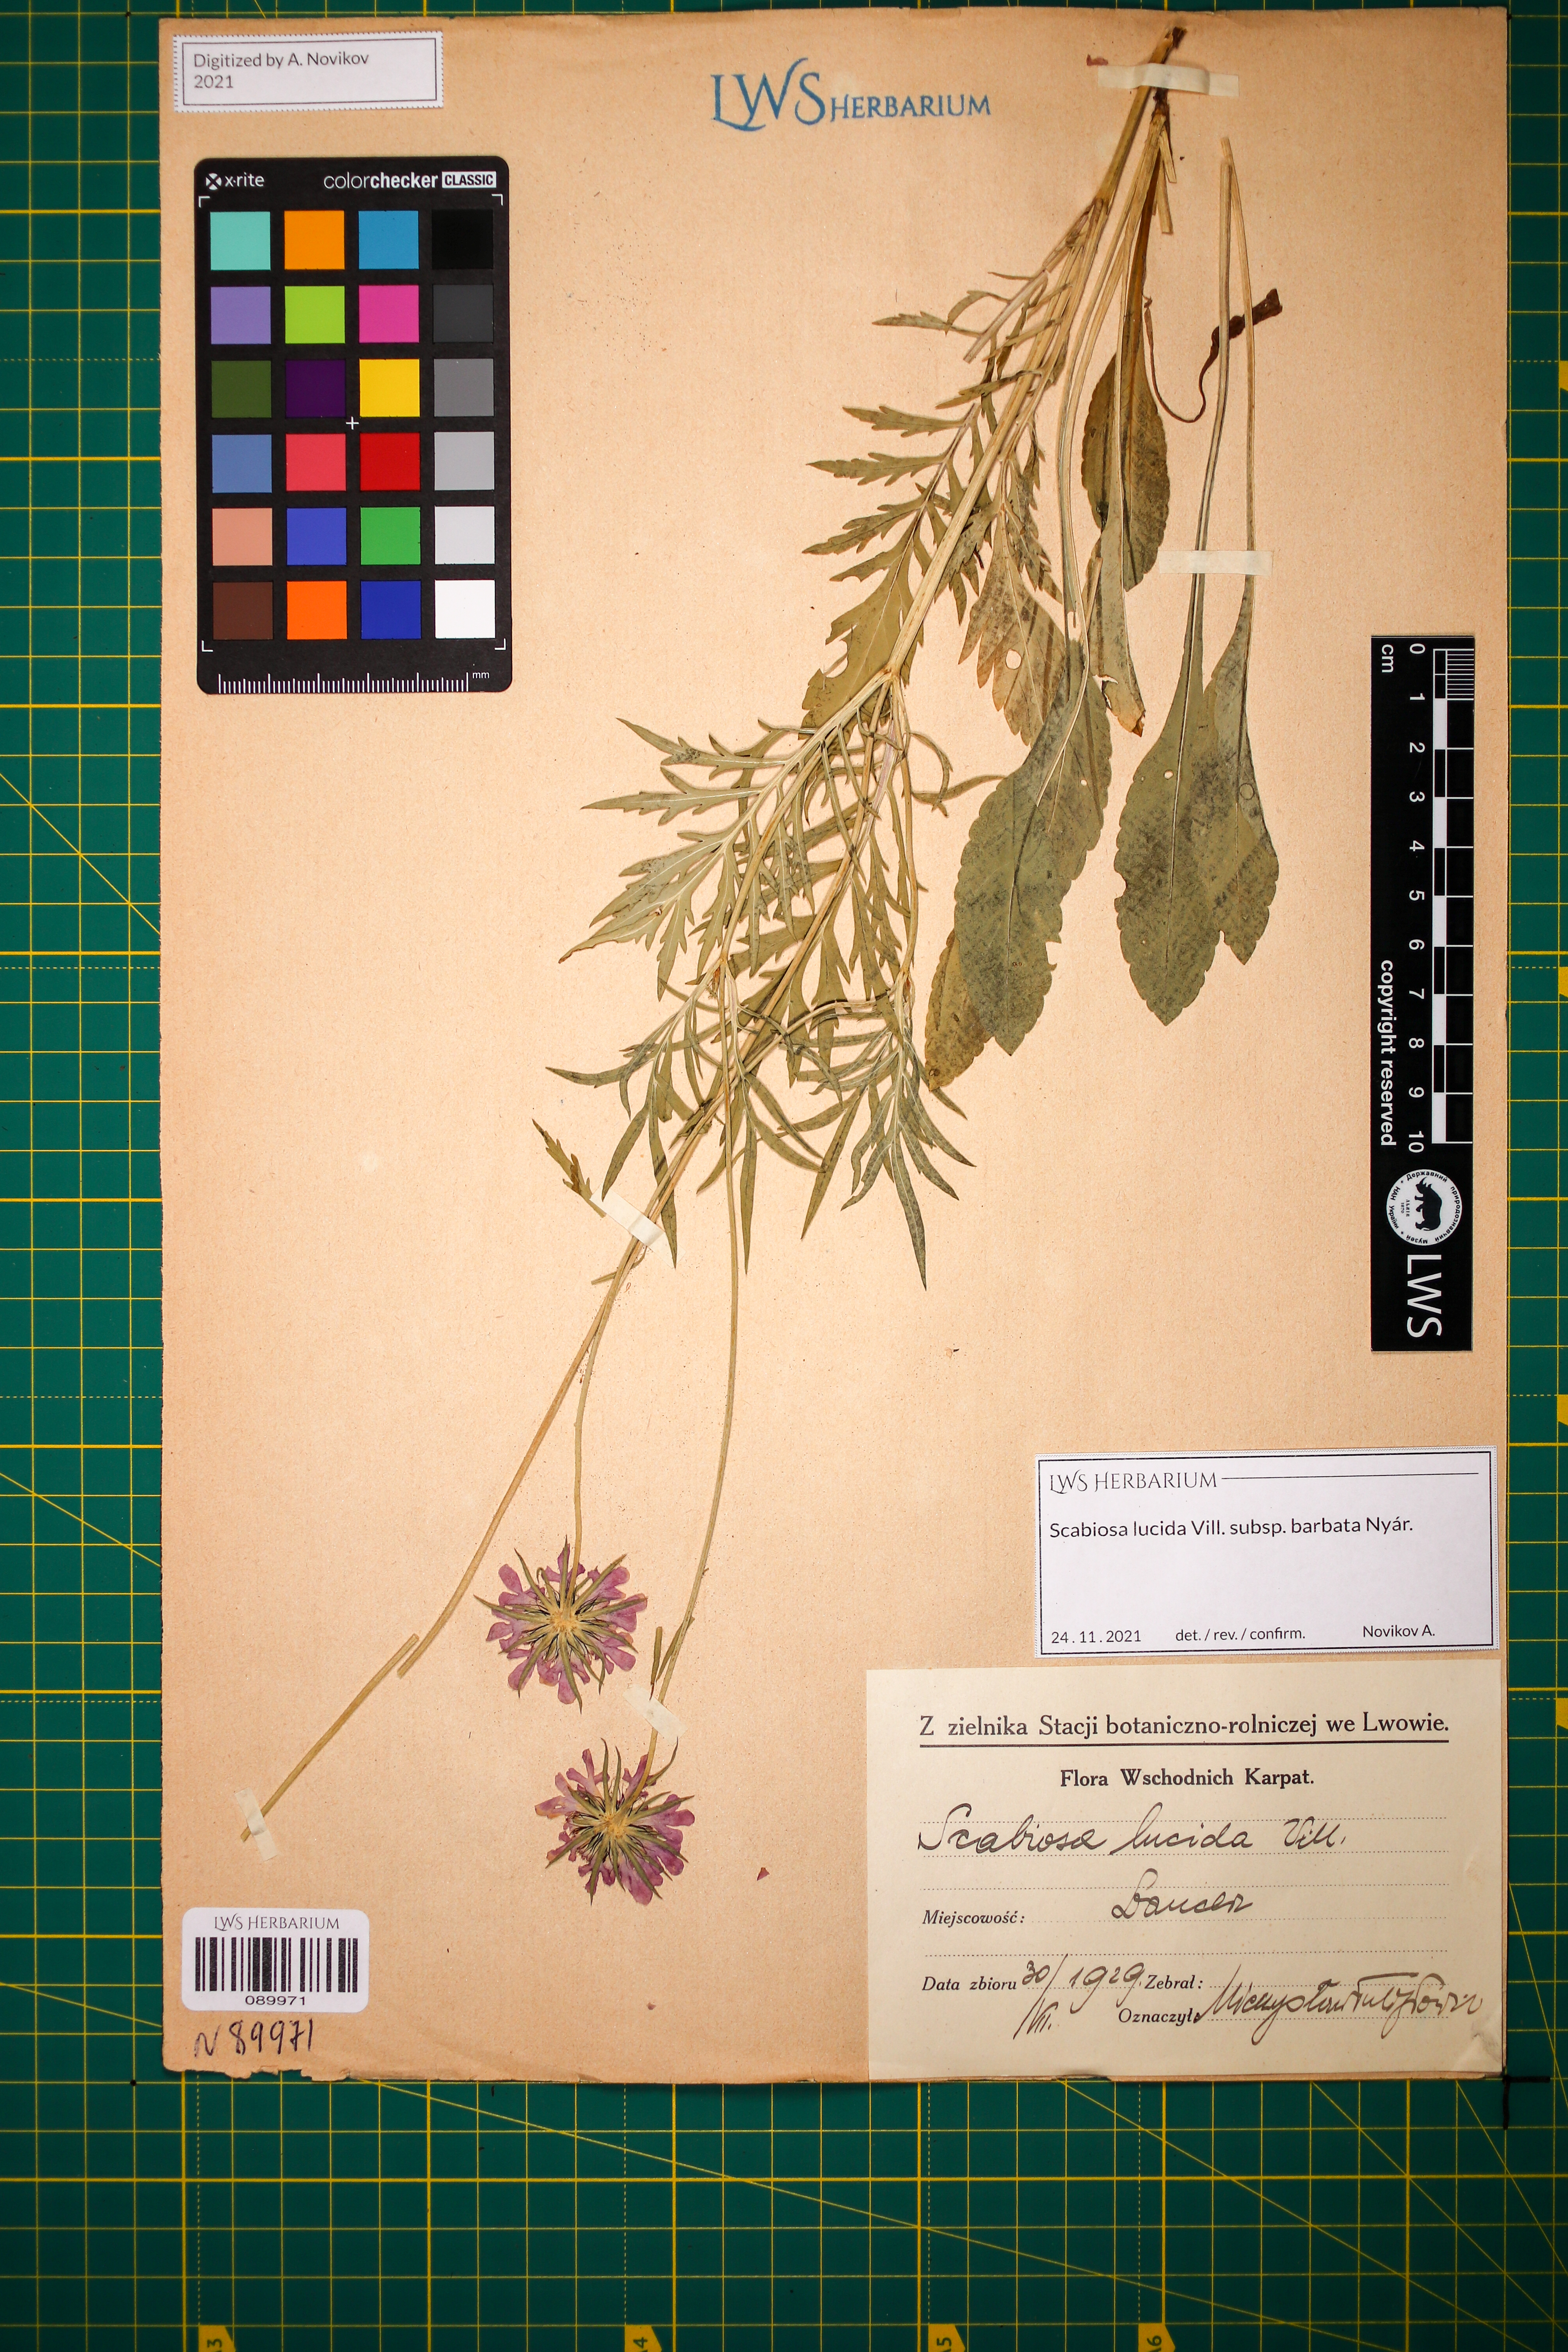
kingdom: Plantae
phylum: Tracheophyta
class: Magnoliopsida
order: Dipsacales
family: Caprifoliaceae
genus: Scabiosa
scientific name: Scabiosa lucida
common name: Shining scabious
